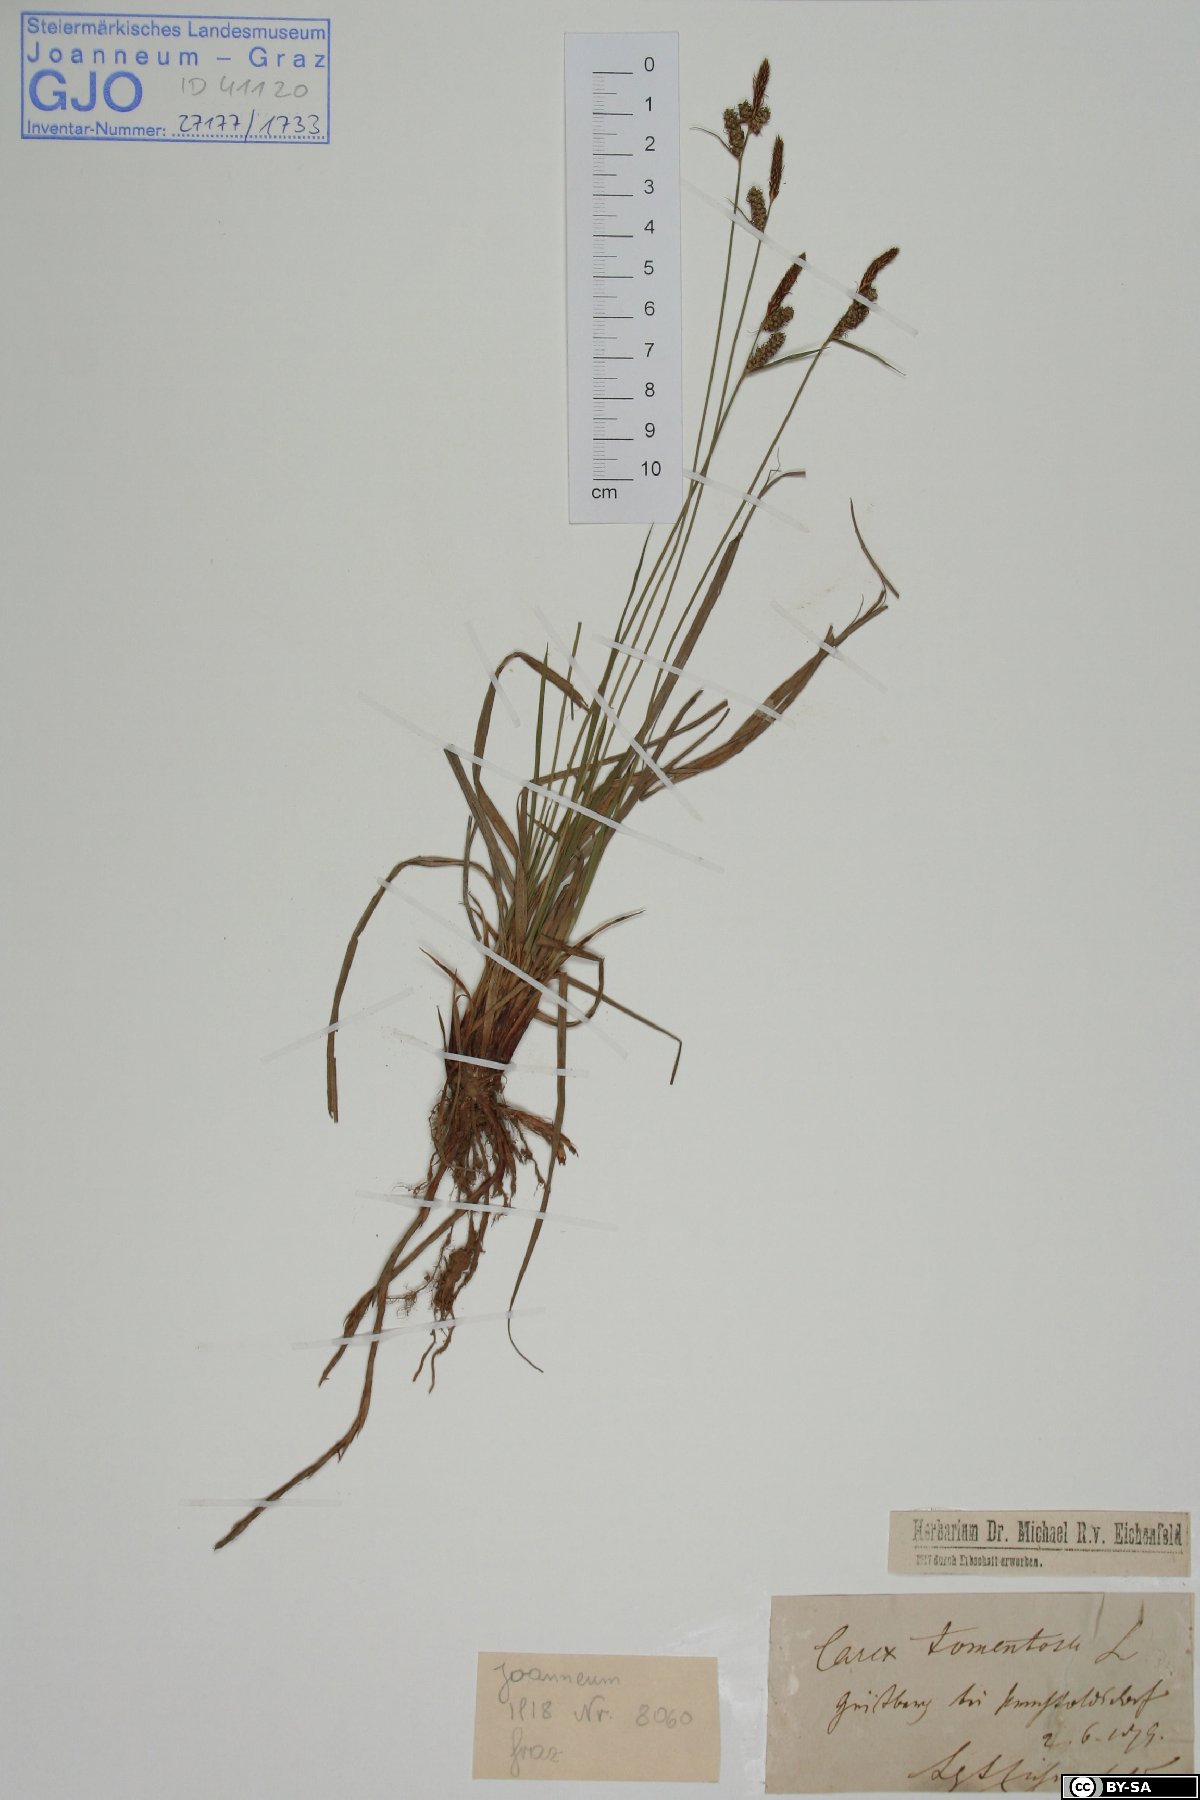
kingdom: Plantae
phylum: Tracheophyta
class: Liliopsida
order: Poales
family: Cyperaceae
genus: Carex
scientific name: Carex tomentosa
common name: Downy-fruited sedge
